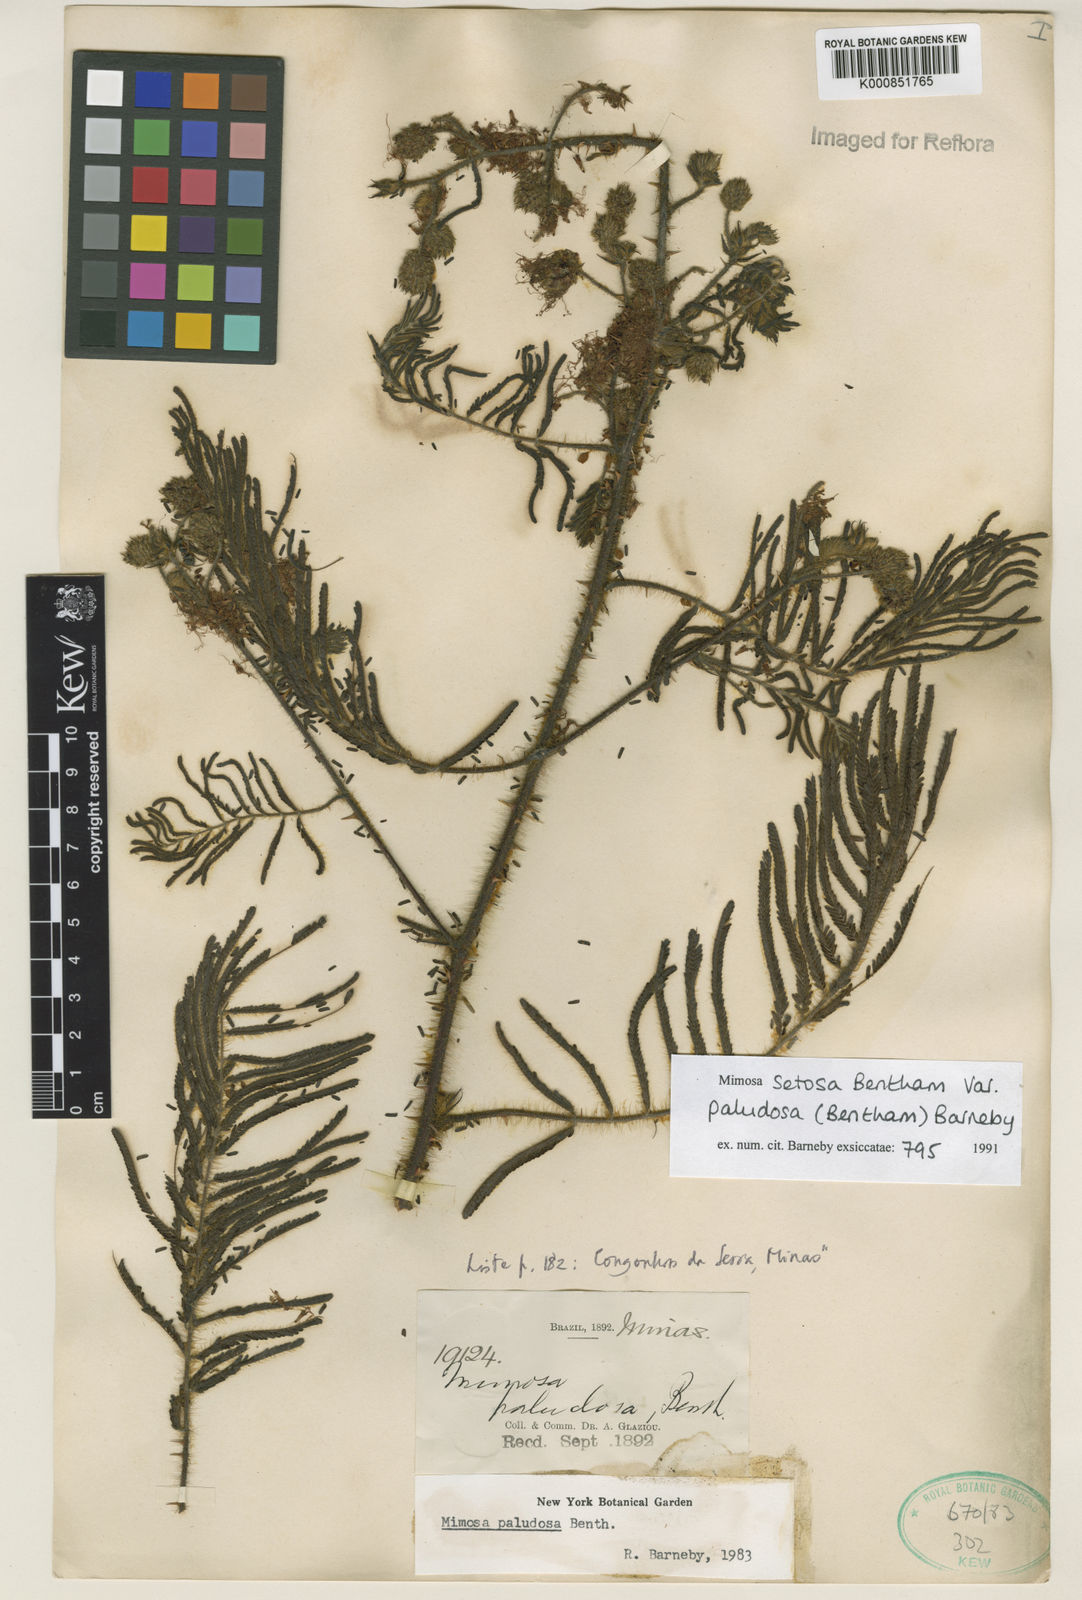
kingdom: Plantae
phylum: Tracheophyta
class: Magnoliopsida
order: Fabales
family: Fabaceae
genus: Mimosa
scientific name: Mimosa paludosa
